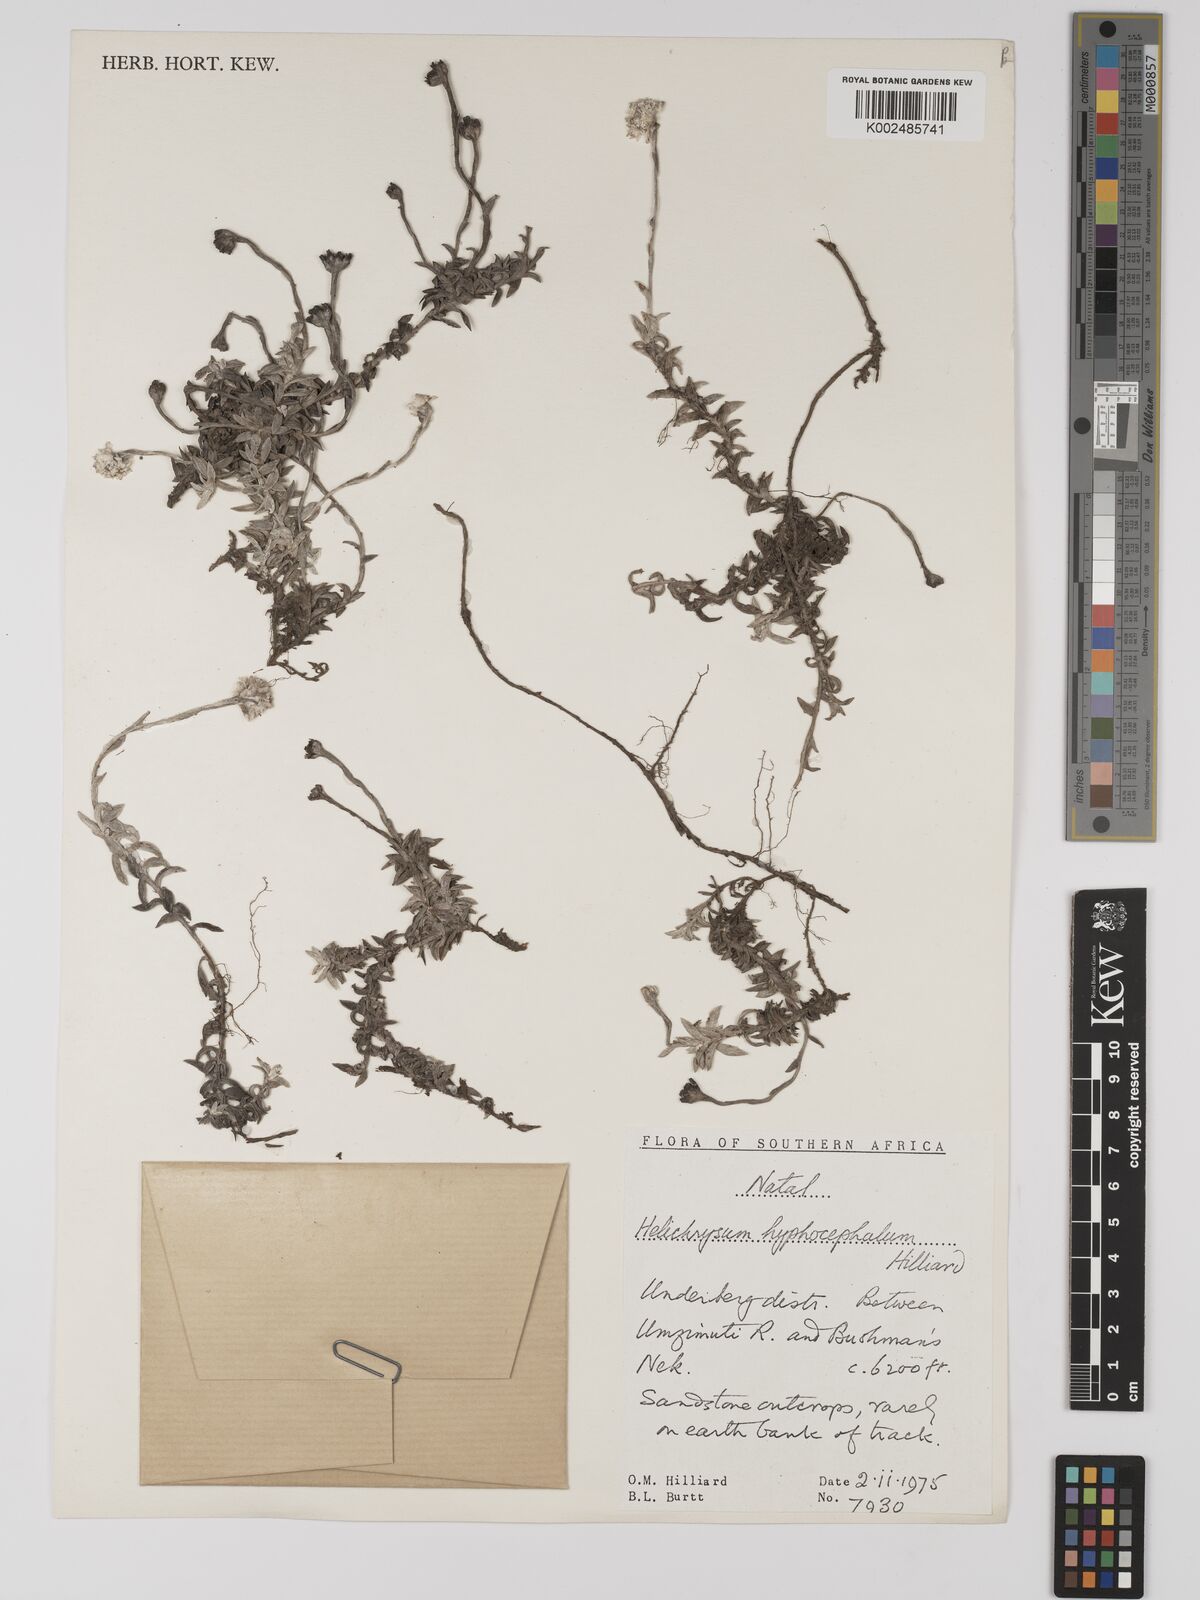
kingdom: Plantae
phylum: Tracheophyta
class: Magnoliopsida
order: Asterales
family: Asteraceae
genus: Helichrysum
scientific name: Helichrysum hyphocephalum
